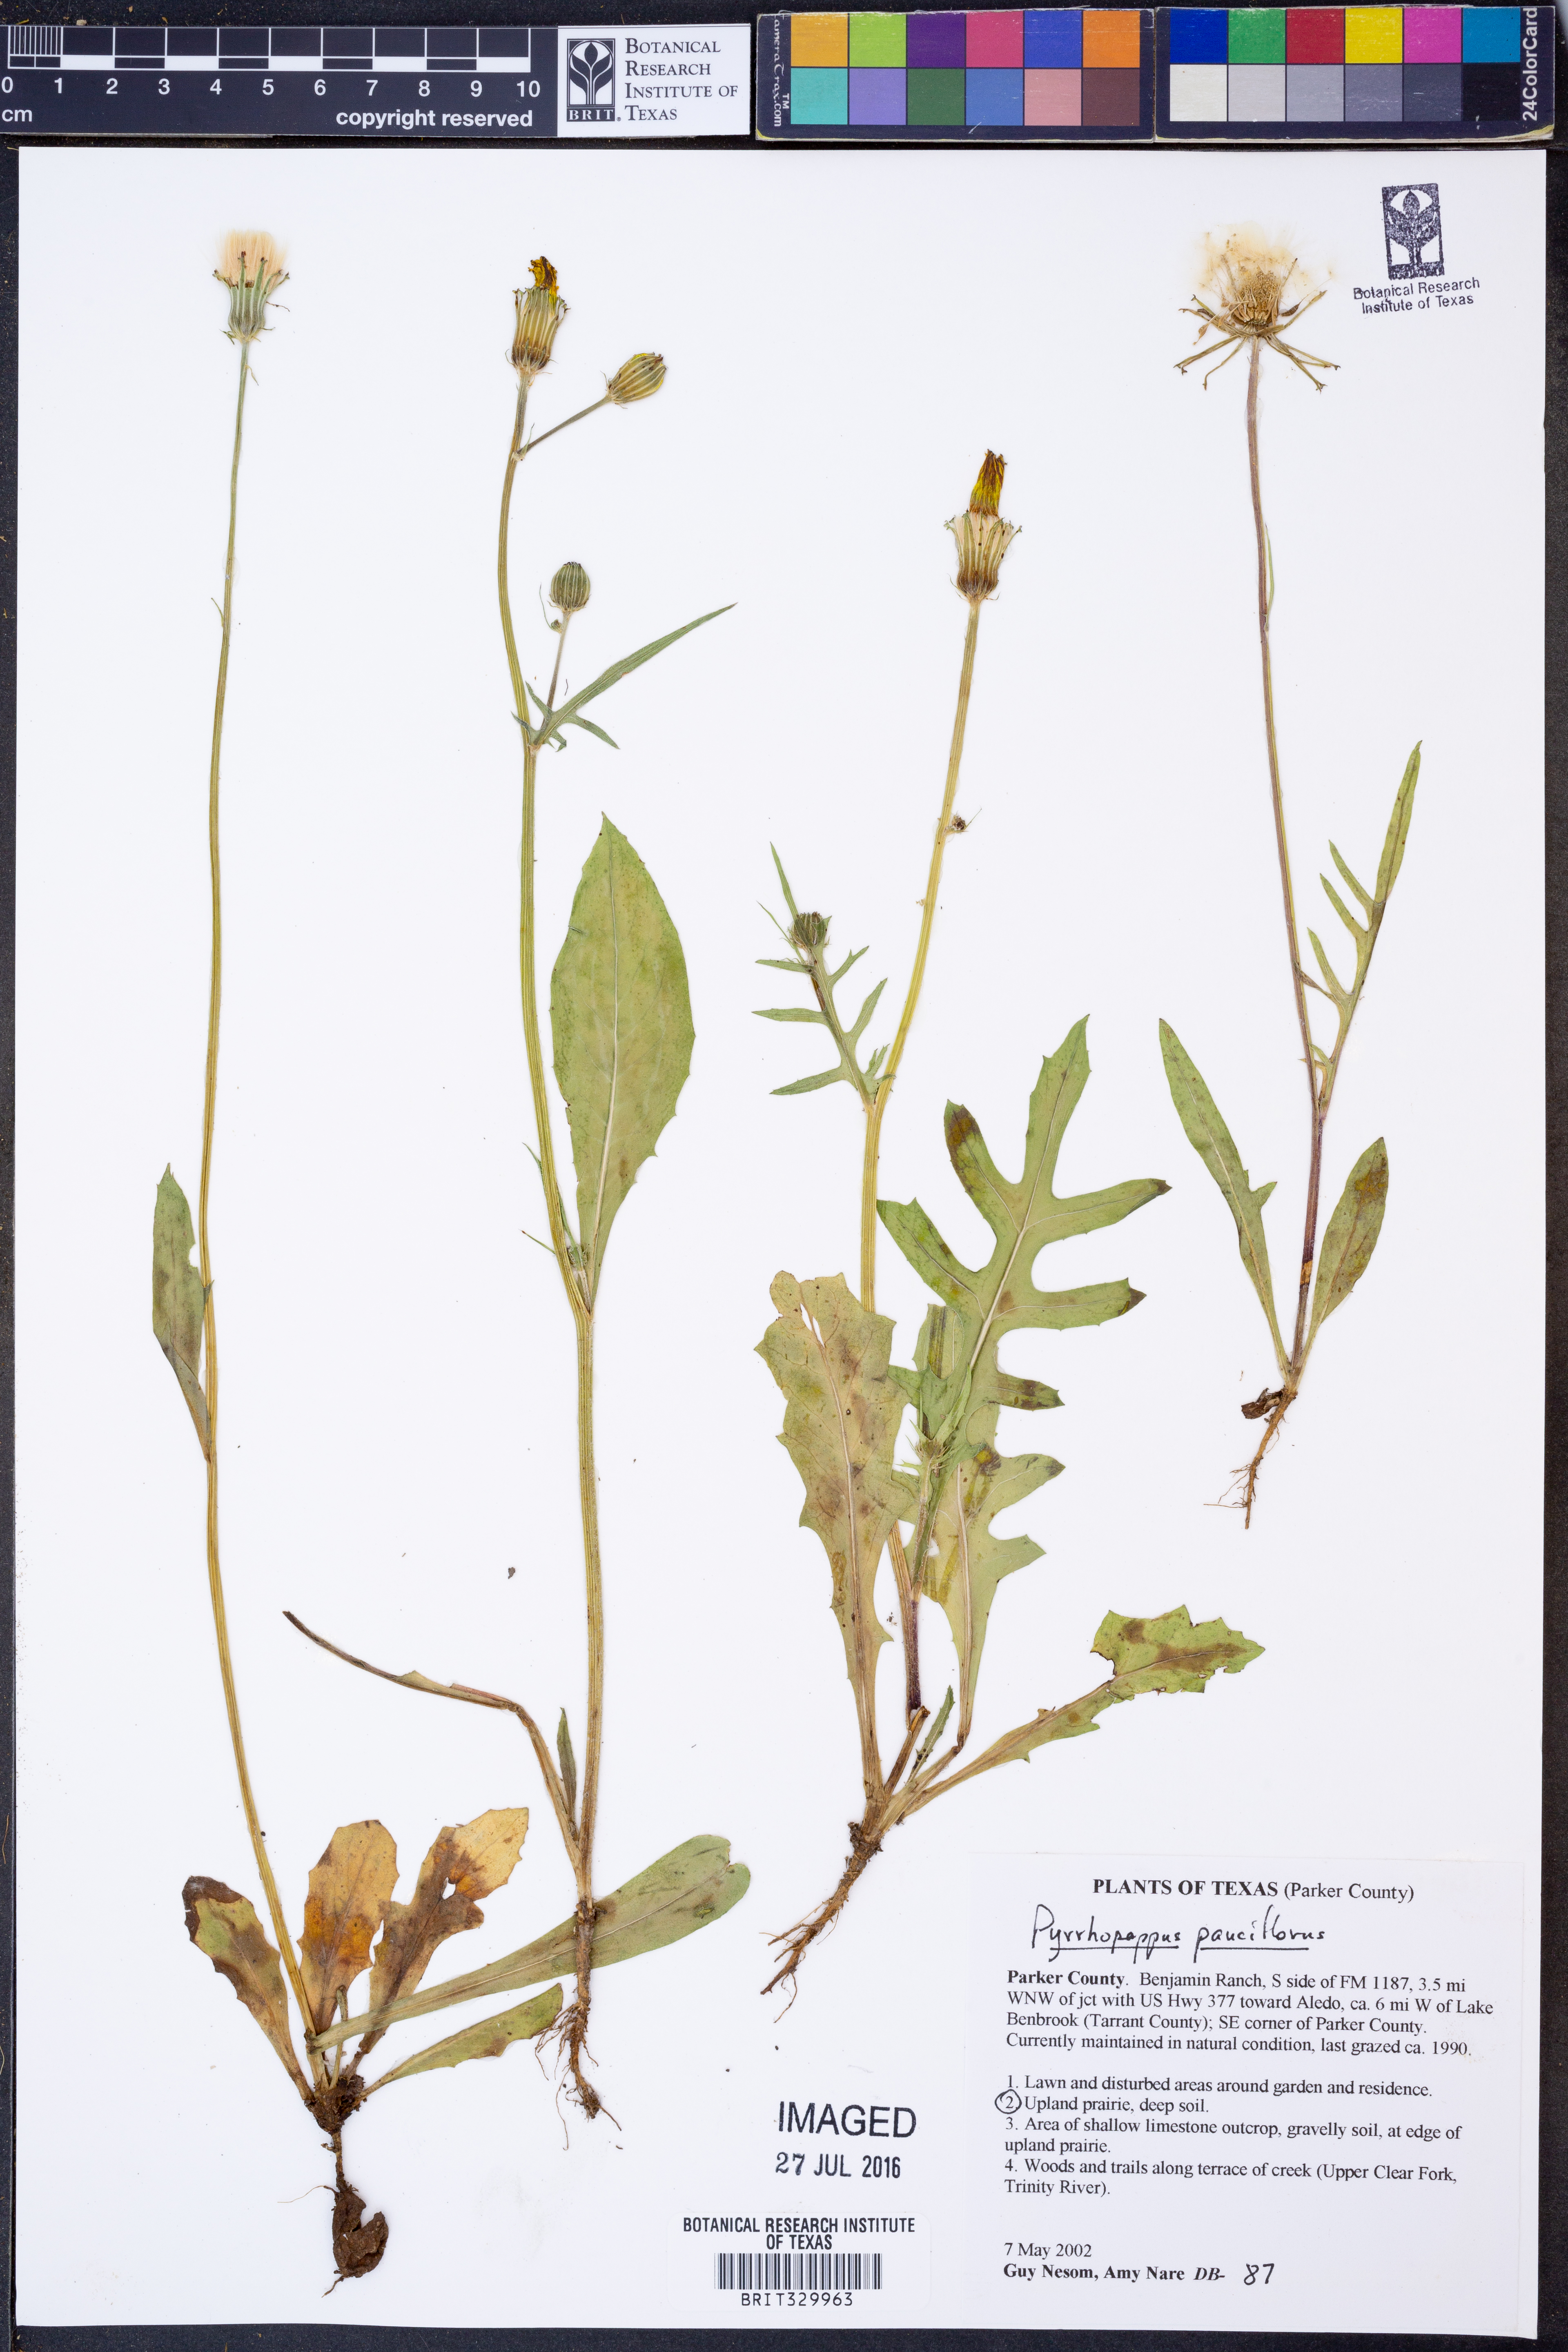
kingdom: Plantae
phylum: Tracheophyta
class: Magnoliopsida
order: Asterales
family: Asteraceae
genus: Pyrrhopappus
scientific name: Pyrrhopappus pauciflorus
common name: Texas false dandelion
